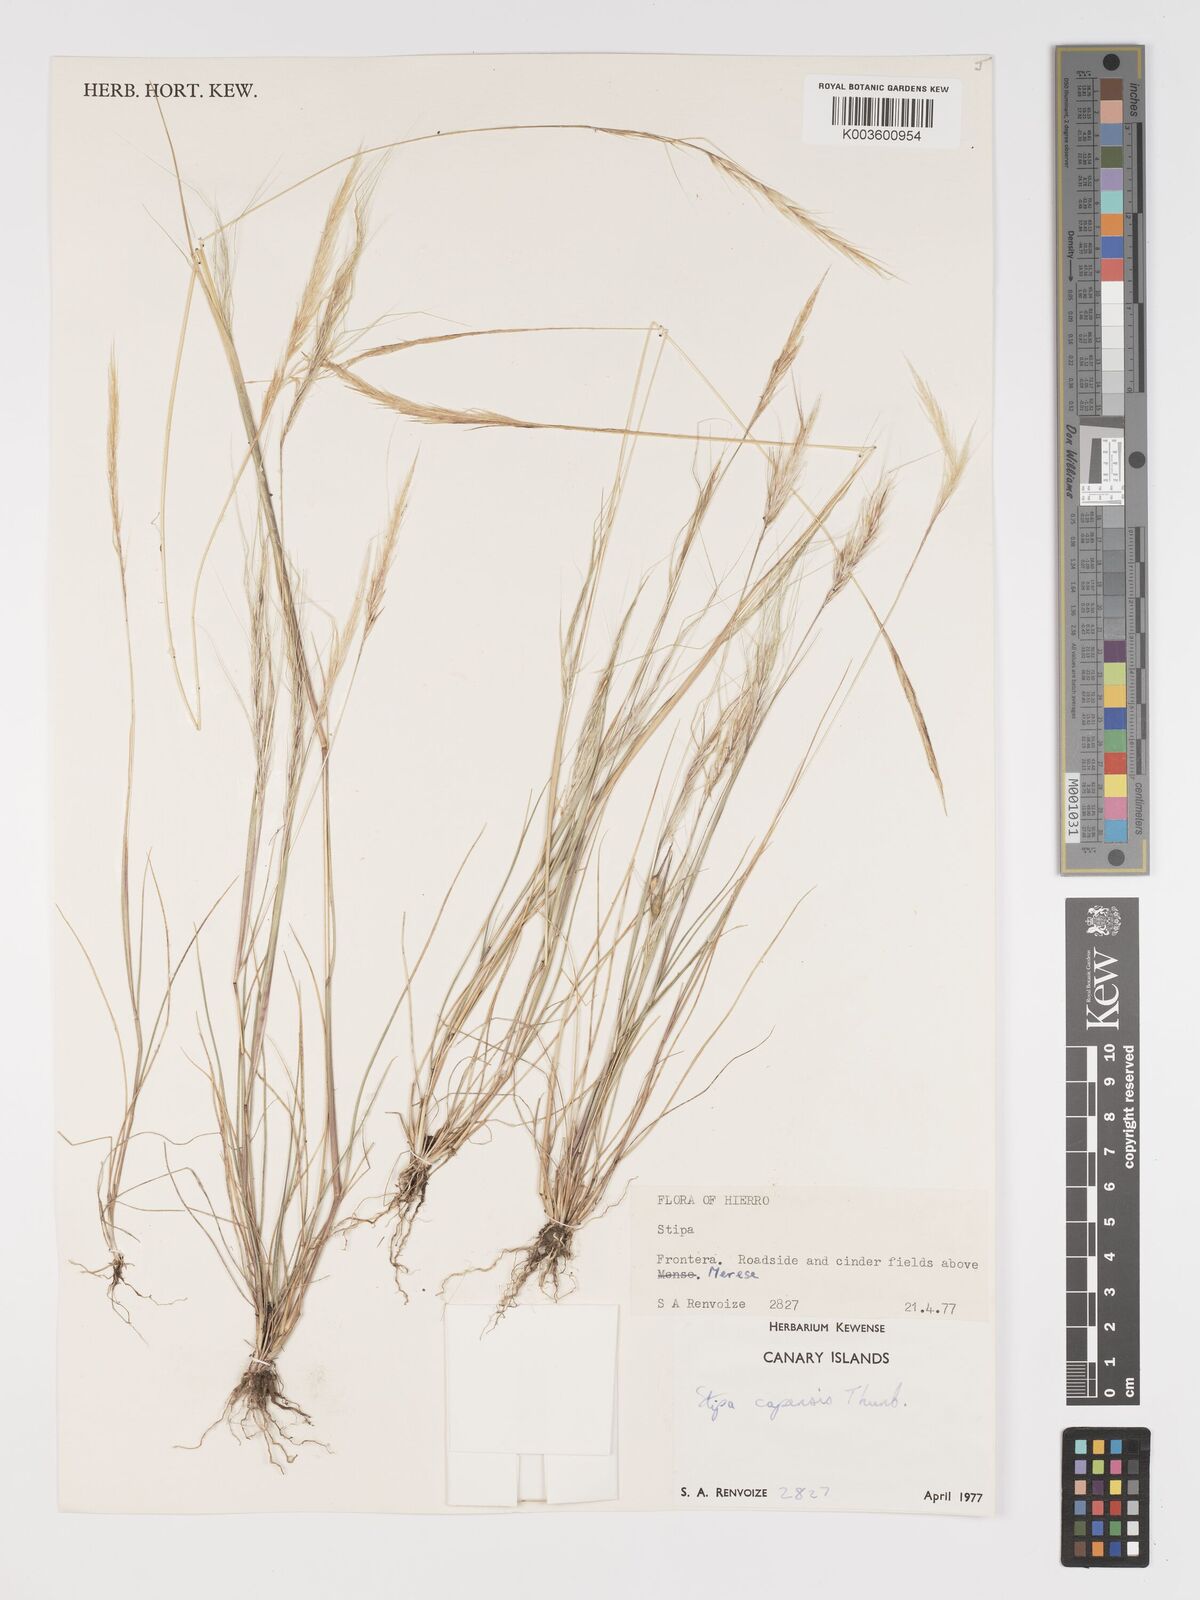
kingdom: Plantae
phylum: Tracheophyta
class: Liliopsida
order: Poales
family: Poaceae
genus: Stipellula
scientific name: Stipellula capensis
